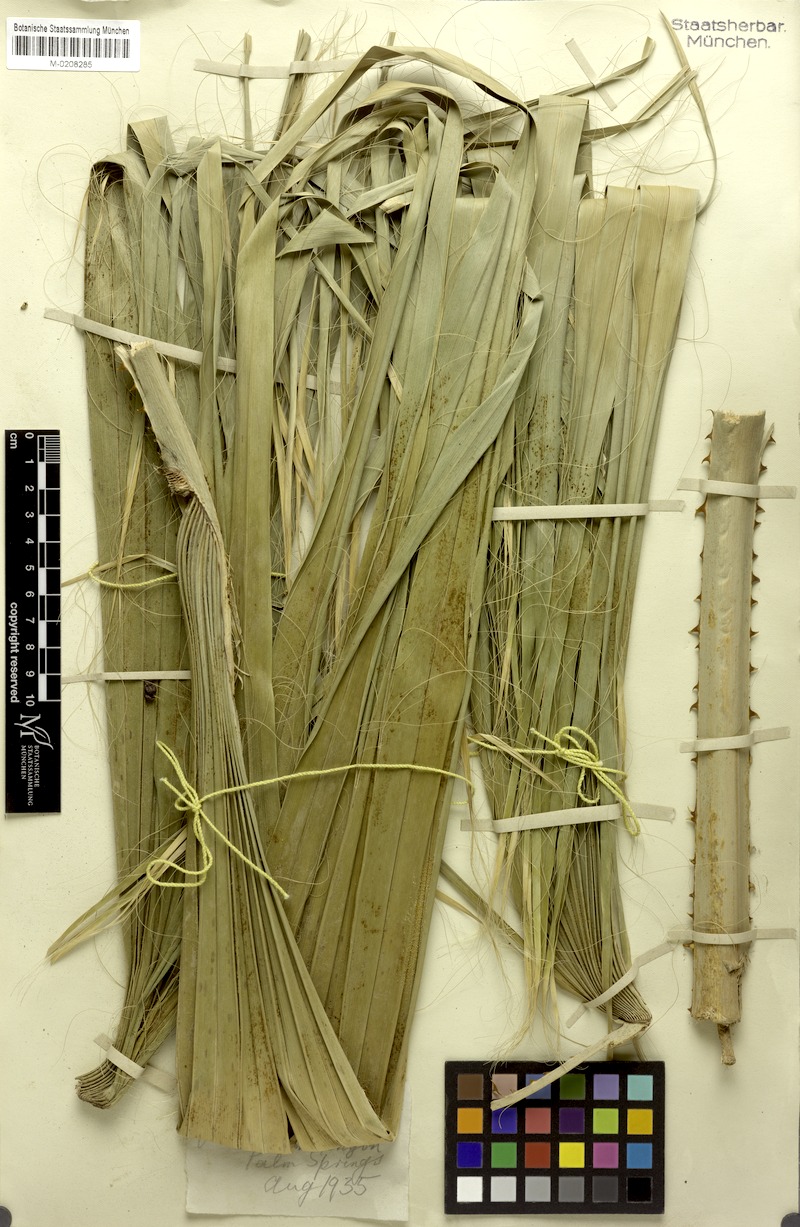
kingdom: Plantae
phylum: Tracheophyta
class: Liliopsida
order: Arecales
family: Arecaceae
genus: Washingtonia
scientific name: Washingtonia filifera
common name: California fan palm
